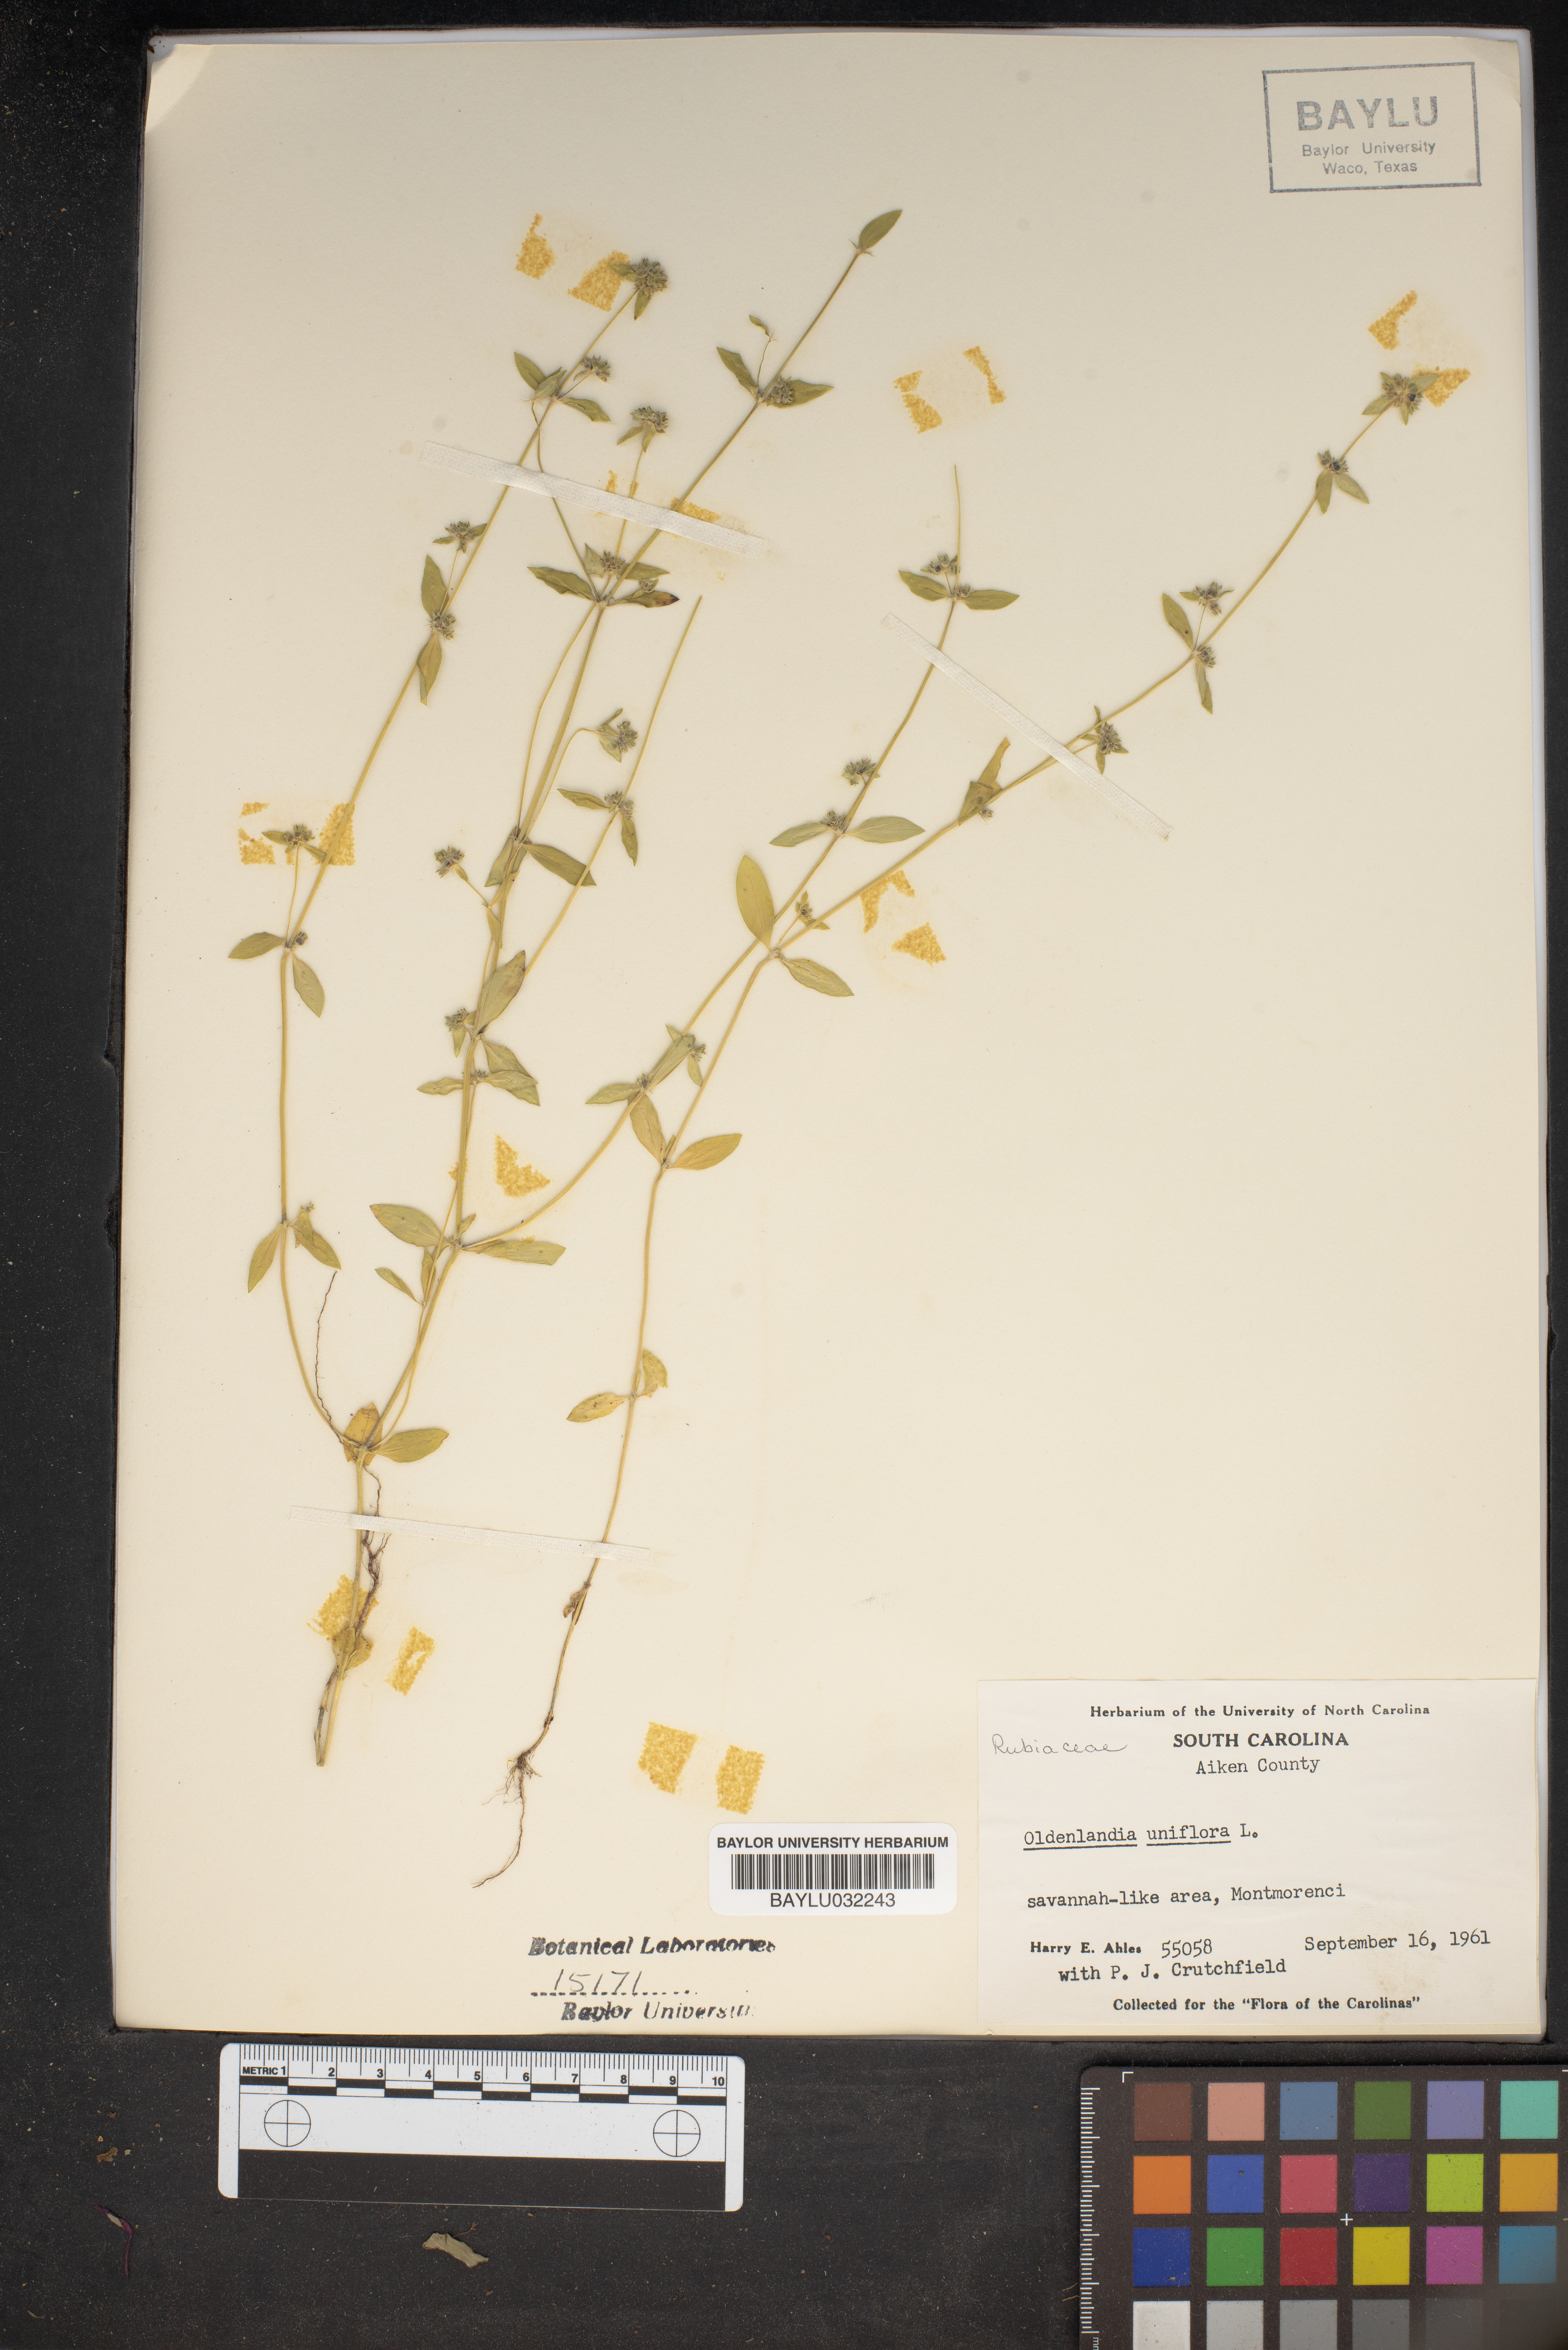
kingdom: Plantae
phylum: Tracheophyta
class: Magnoliopsida
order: Gentianales
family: Rubiaceae
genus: Edrastima
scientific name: Edrastima uniflora
